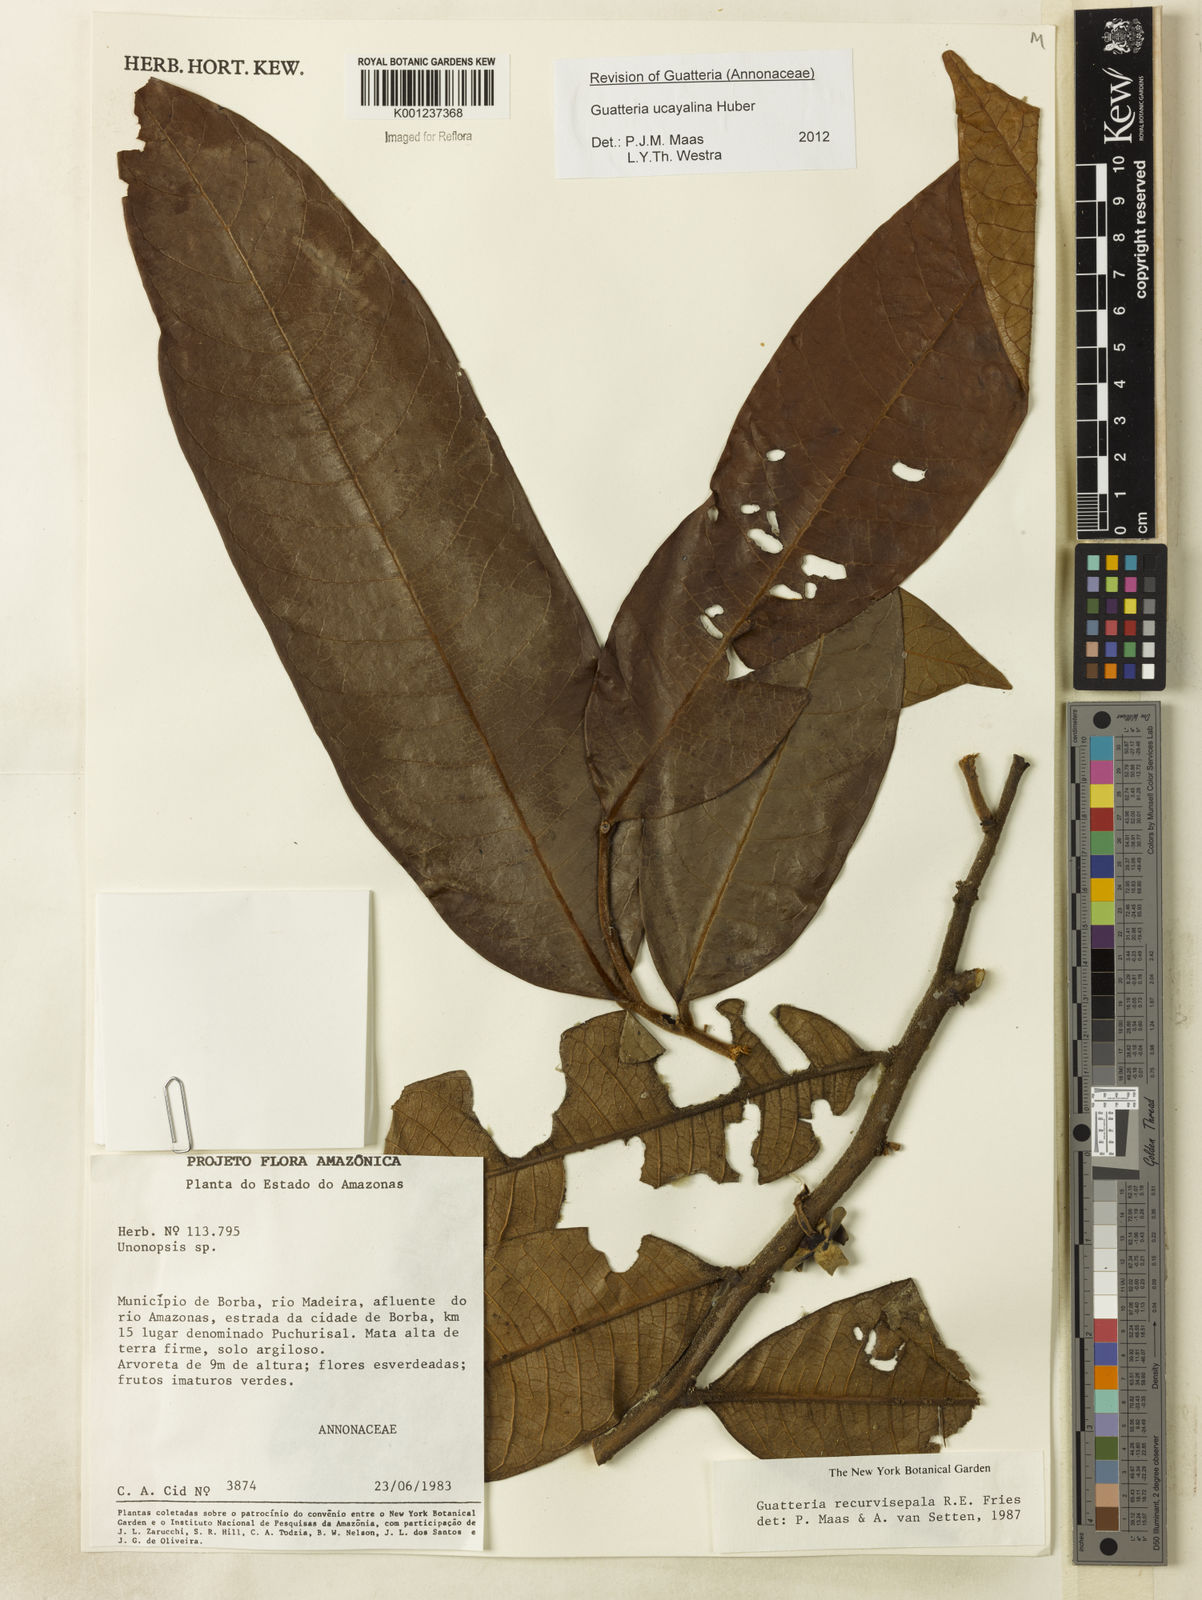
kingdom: Plantae
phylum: Tracheophyta
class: Magnoliopsida
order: Magnoliales
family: Annonaceae
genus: Guatteria
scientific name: Guatteria blepharophylla
